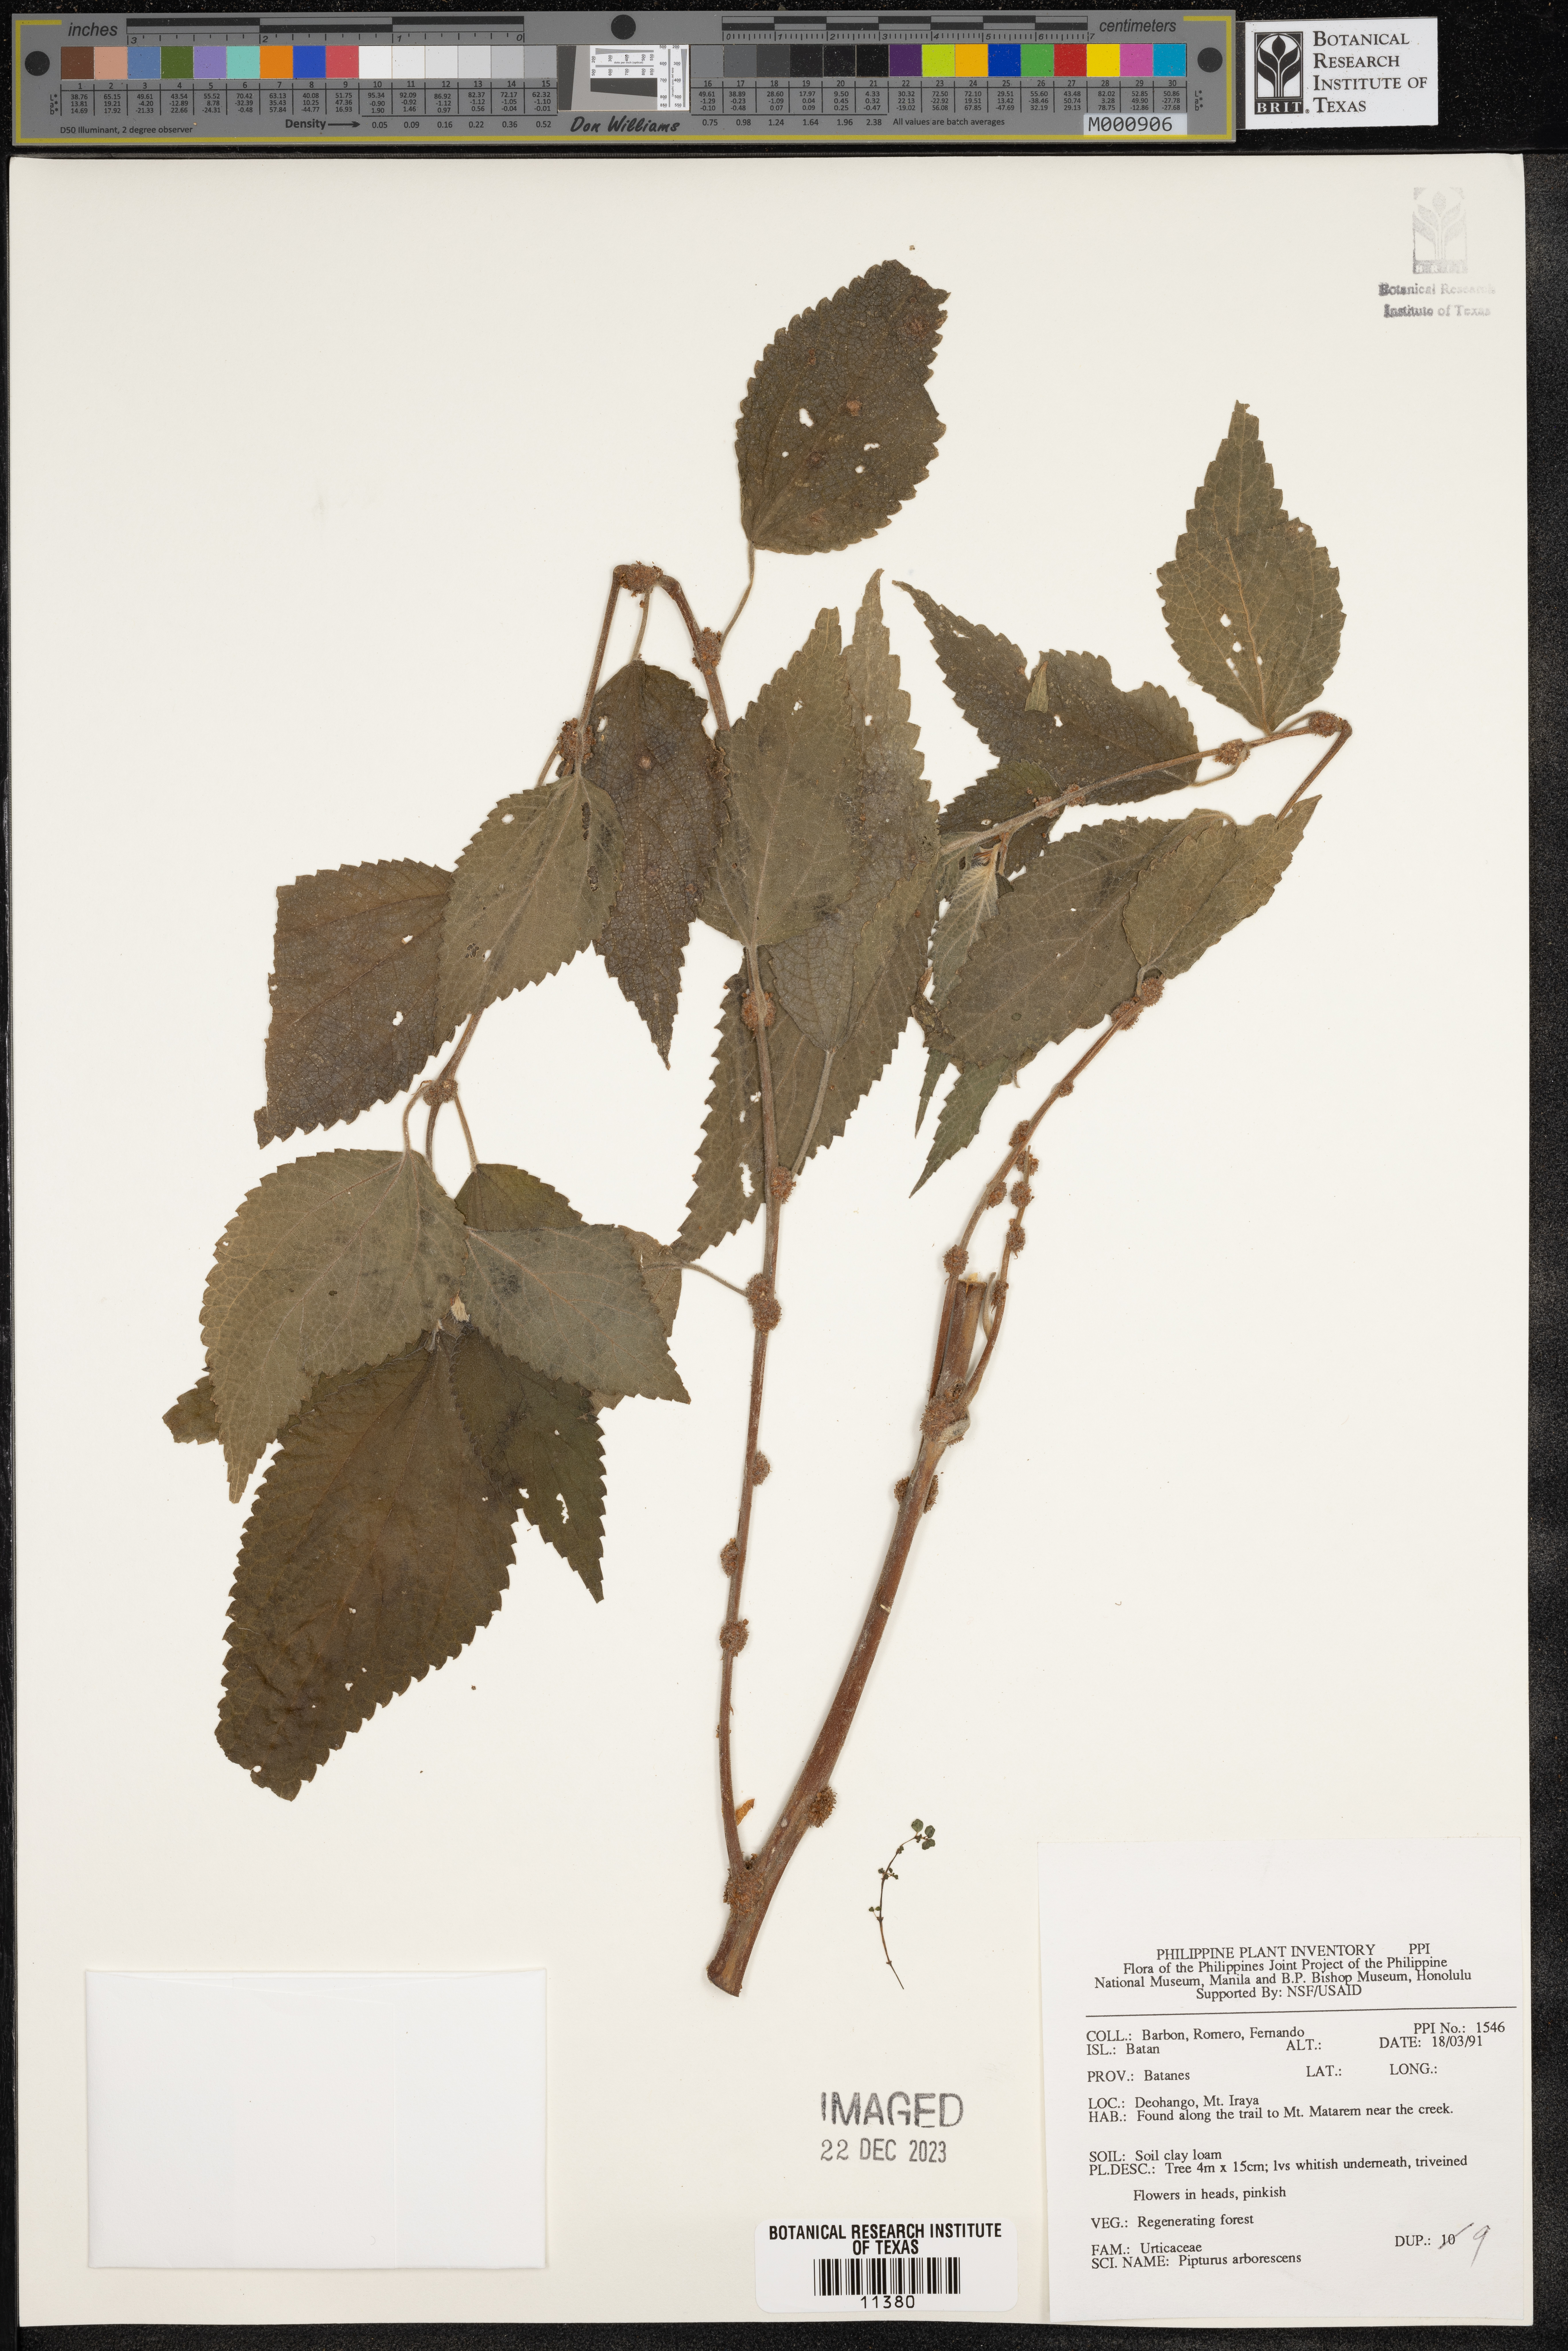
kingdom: Plantae
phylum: Tracheophyta
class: Magnoliopsida
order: Rosales
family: Urticaceae
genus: Pipturus
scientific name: Pipturus arborescens
